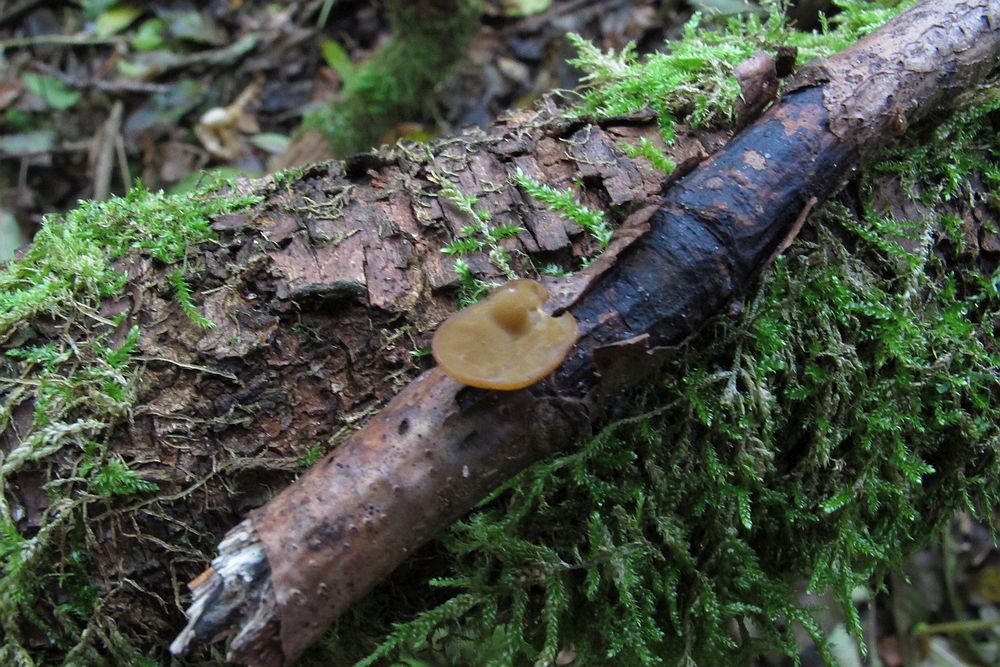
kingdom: Fungi
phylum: Ascomycota
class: Leotiomycetes
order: Helotiales
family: Rutstroemiaceae
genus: Rutstroemia
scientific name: Rutstroemia firma
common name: gren-brunskive
